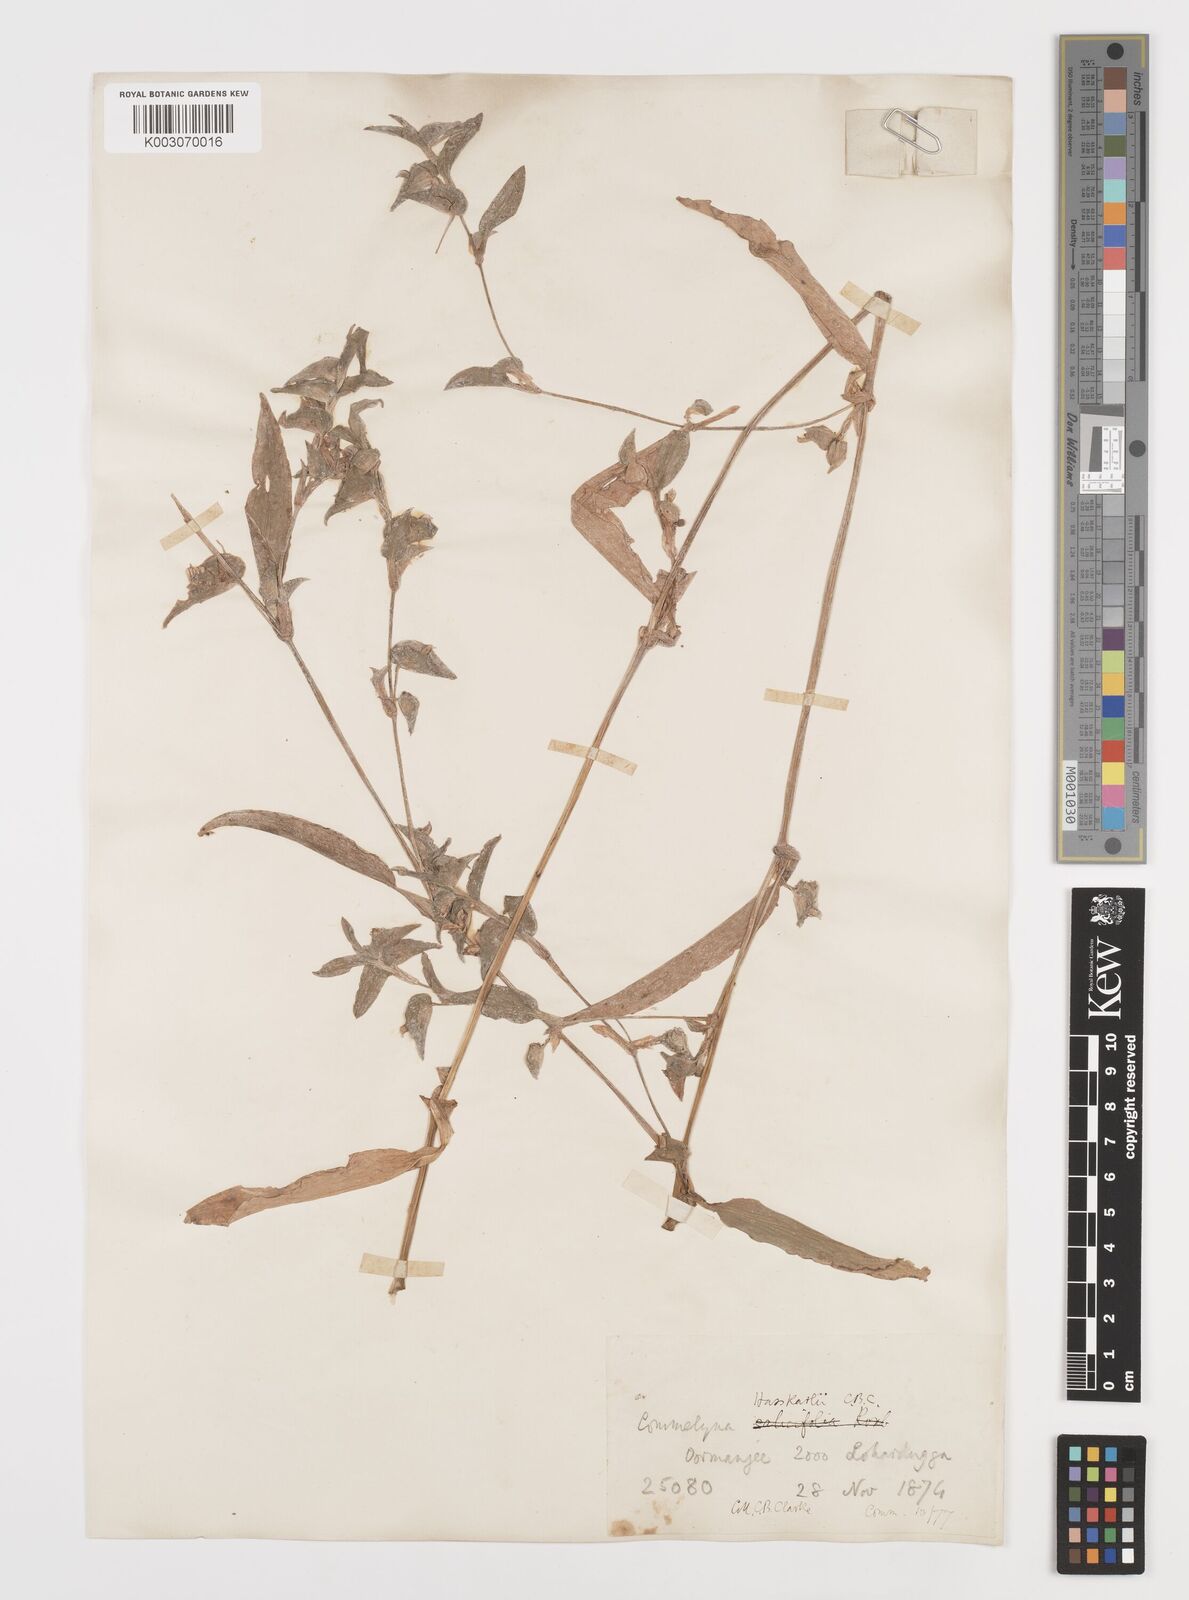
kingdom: Plantae
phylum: Tracheophyta
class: Liliopsida
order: Commelinales
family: Commelinaceae
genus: Commelina
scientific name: Commelina caroliniana
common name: Carolina dayflower
